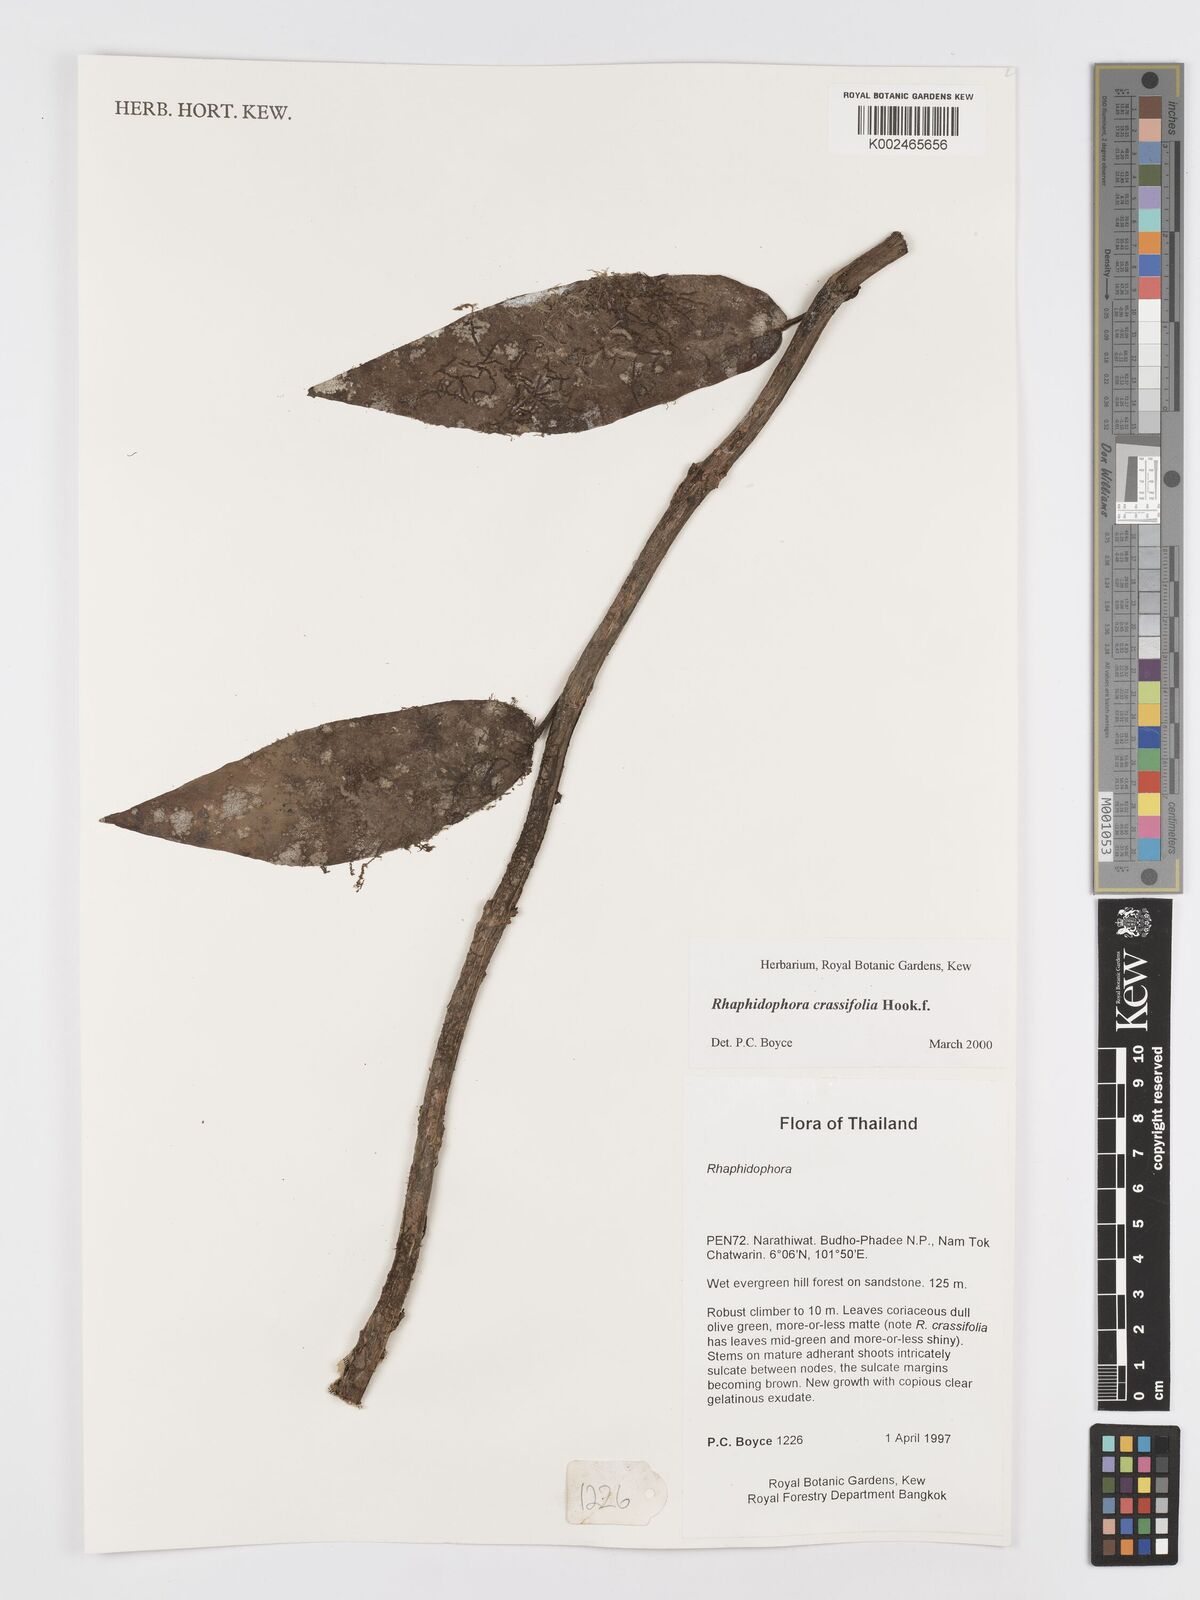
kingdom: Plantae
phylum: Tracheophyta
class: Liliopsida
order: Alismatales
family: Araceae
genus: Rhaphidophora
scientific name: Rhaphidophora crassifolia
